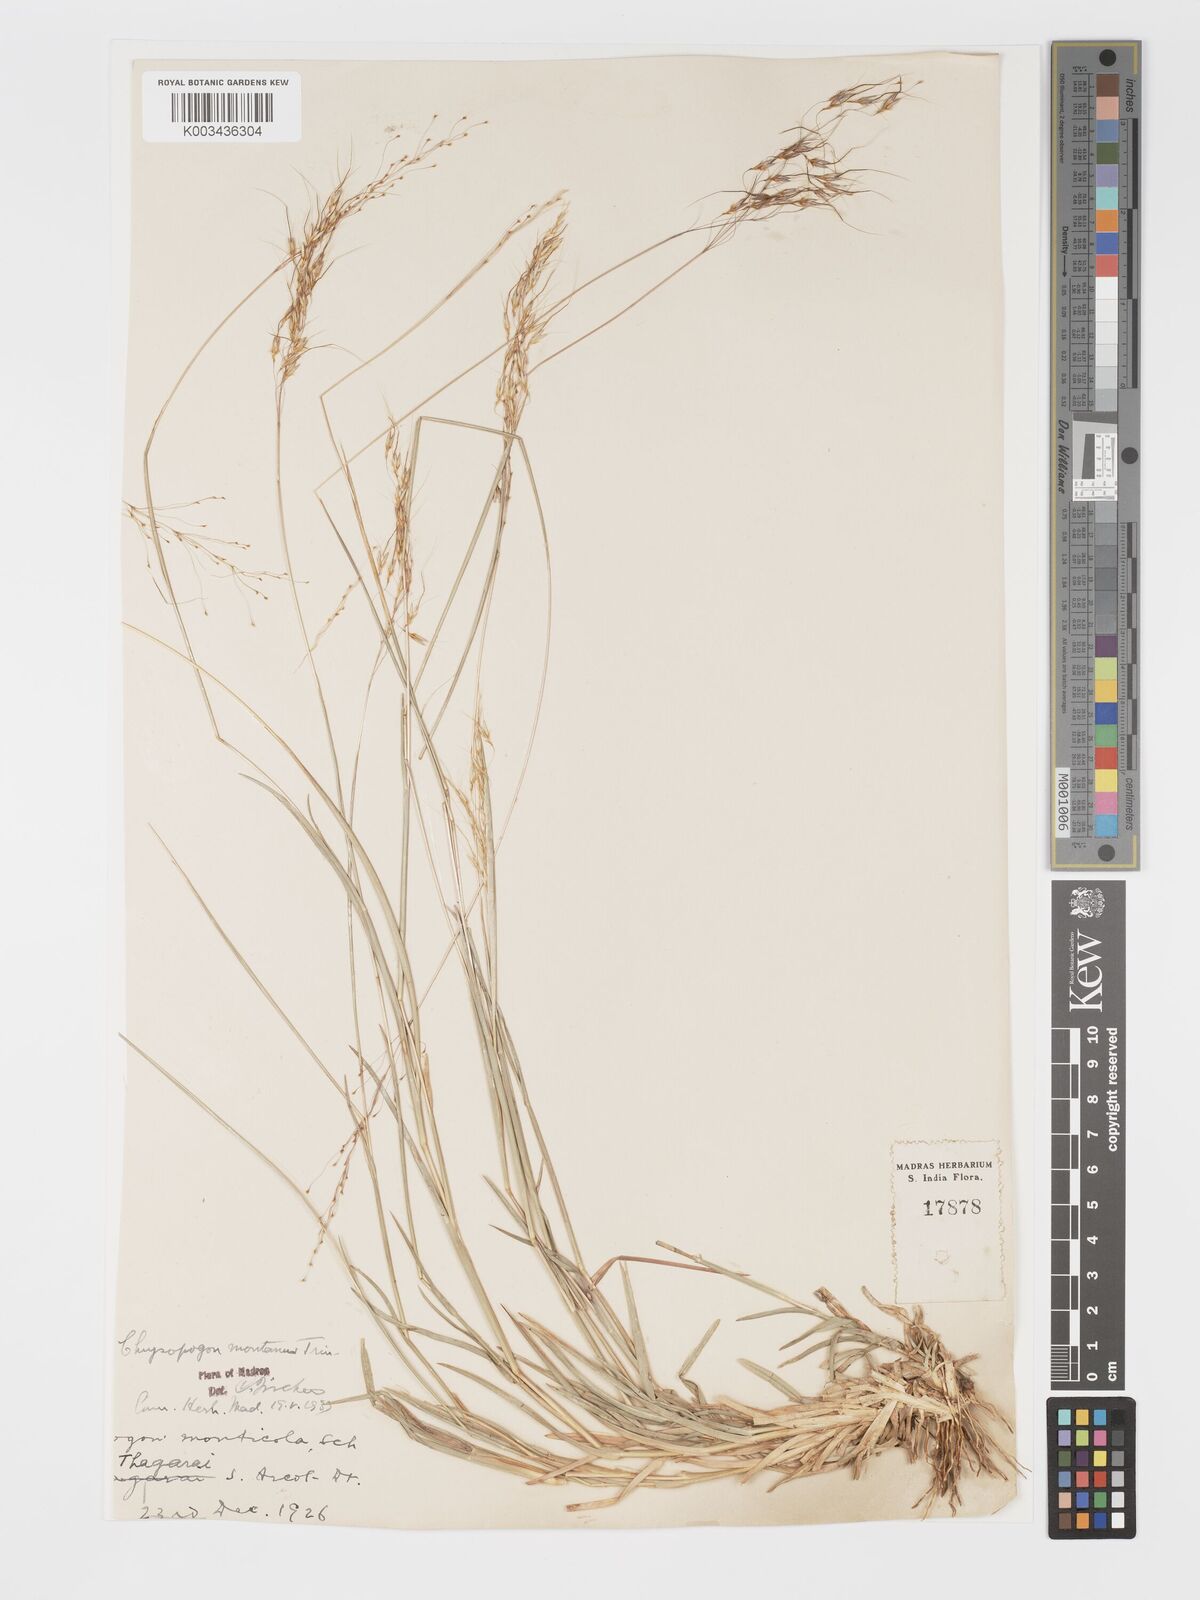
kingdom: Plantae
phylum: Tracheophyta
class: Liliopsida
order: Poales
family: Poaceae
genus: Chrysopogon
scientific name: Chrysopogon fulvus
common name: Red false beardgrass
